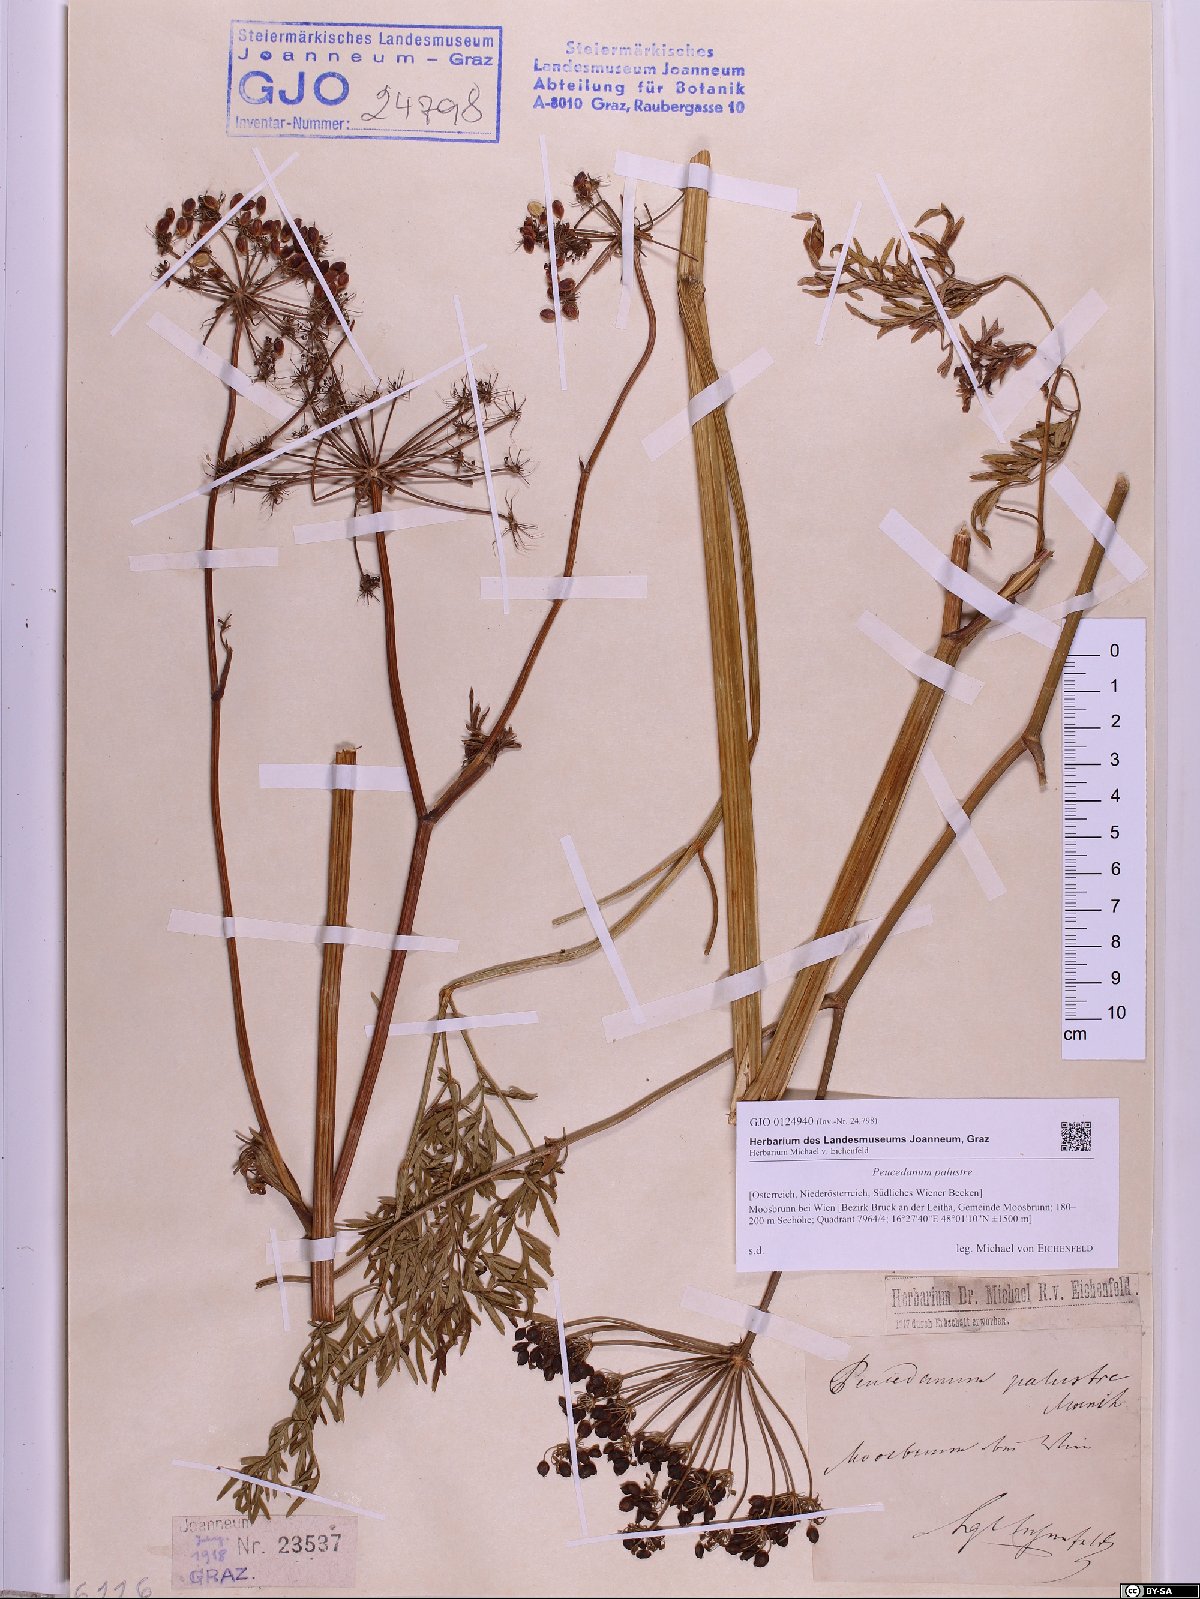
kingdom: Plantae
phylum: Tracheophyta
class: Magnoliopsida
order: Apiales
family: Apiaceae
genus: Thysselinum
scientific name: Thysselinum palustre
